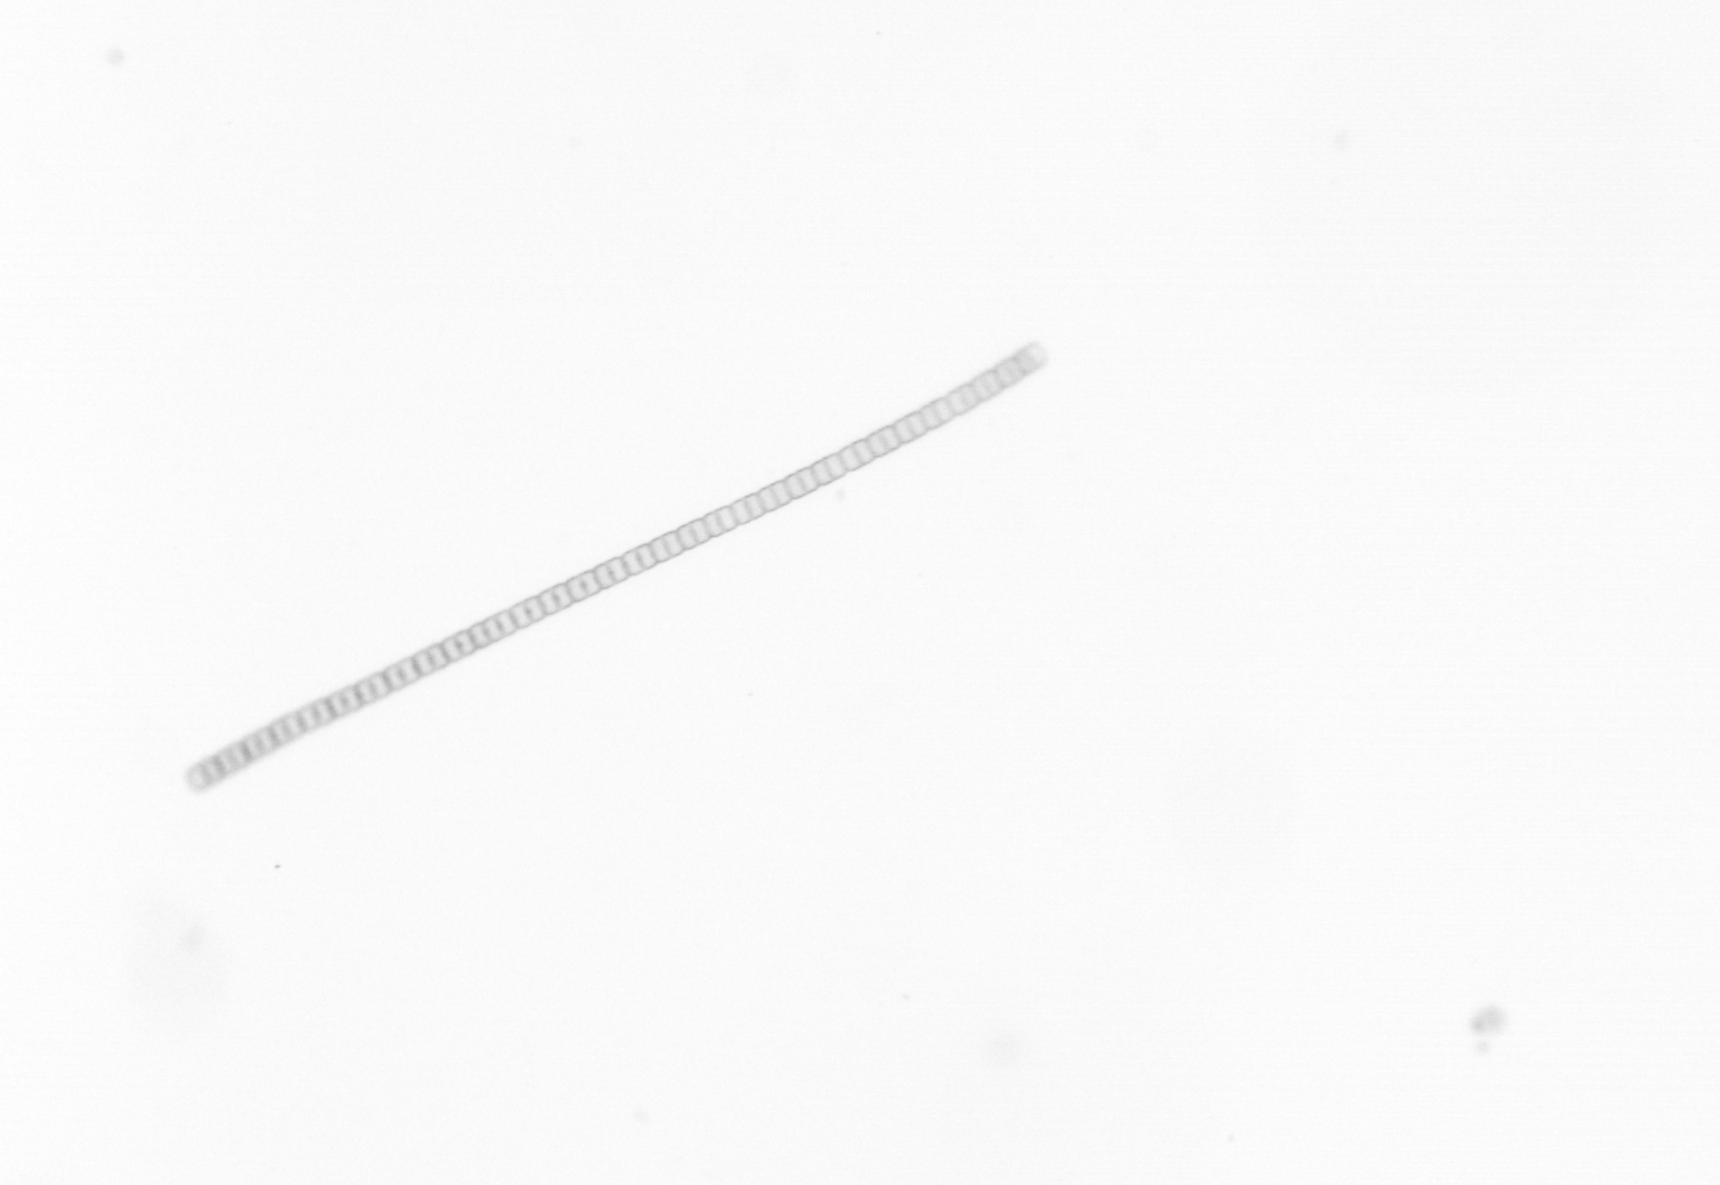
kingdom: Chromista
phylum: Ochrophyta
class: Bacillariophyceae
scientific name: Bacillariophyceae
